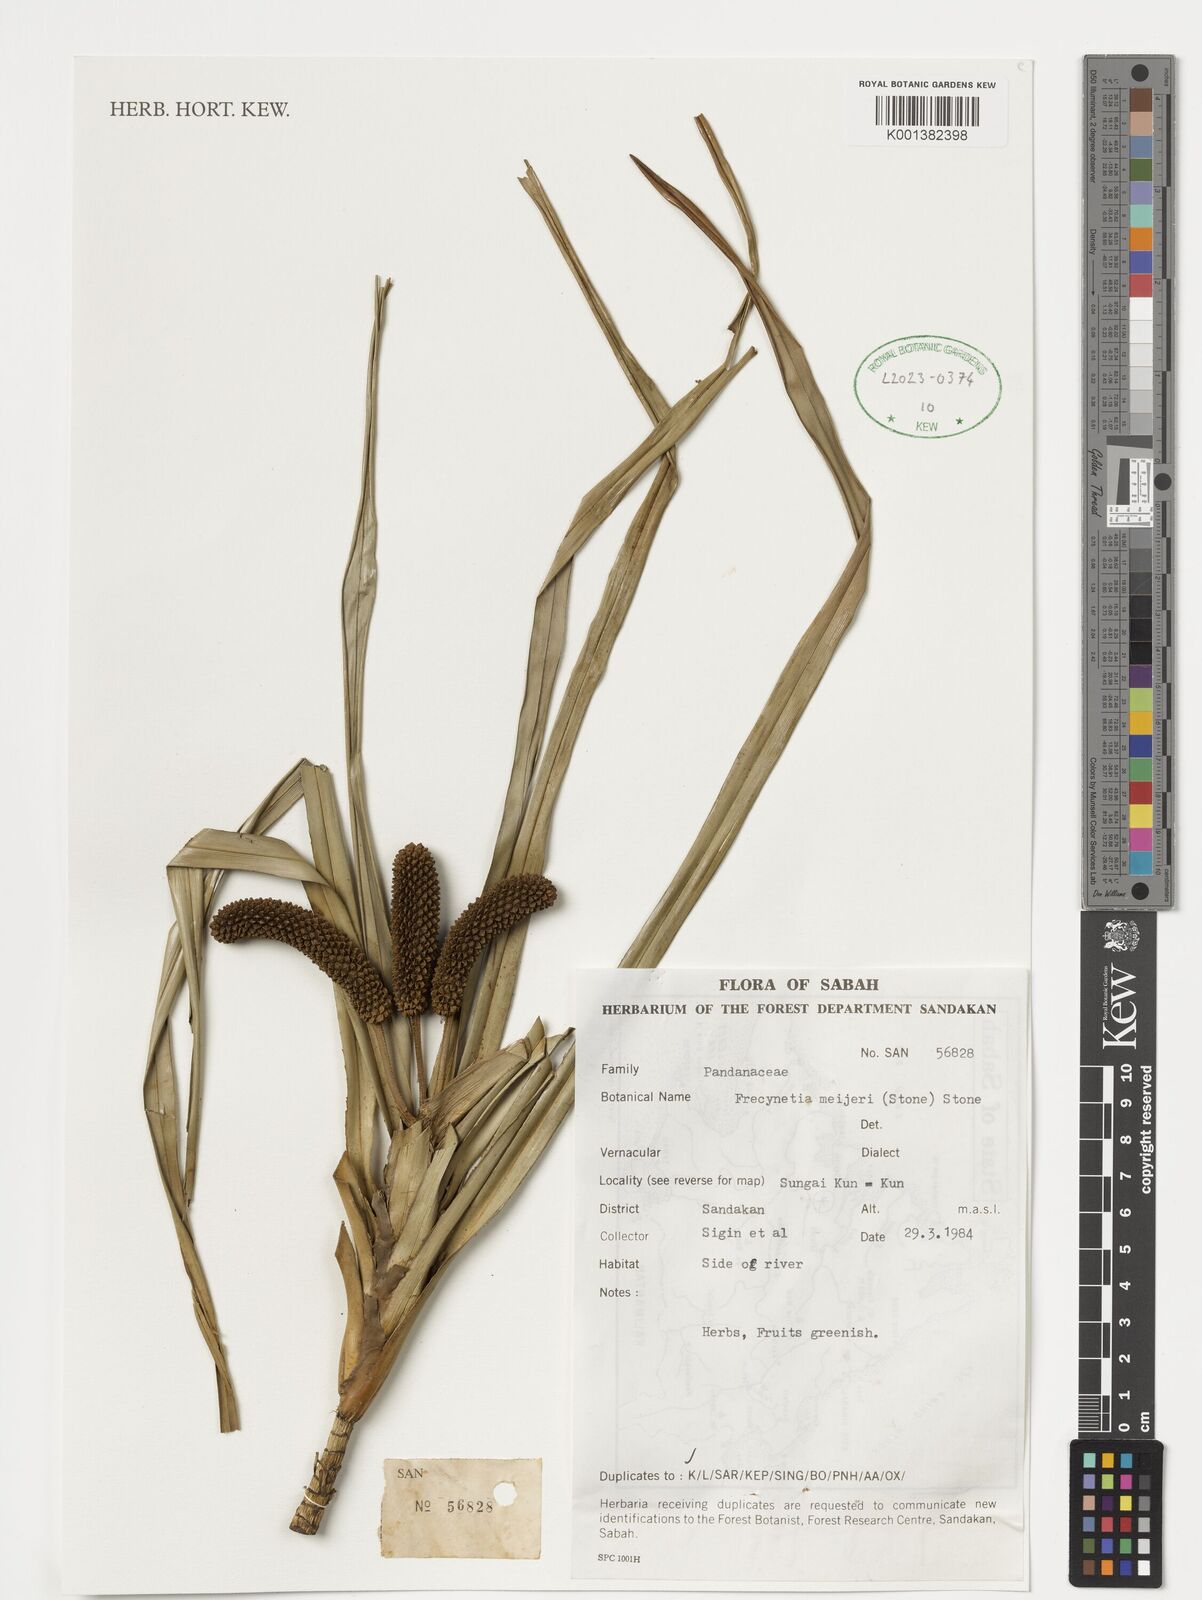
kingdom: Plantae
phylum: Tracheophyta
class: Liliopsida
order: Pandanales
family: Pandanaceae
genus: Freycinetia
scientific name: Freycinetia
